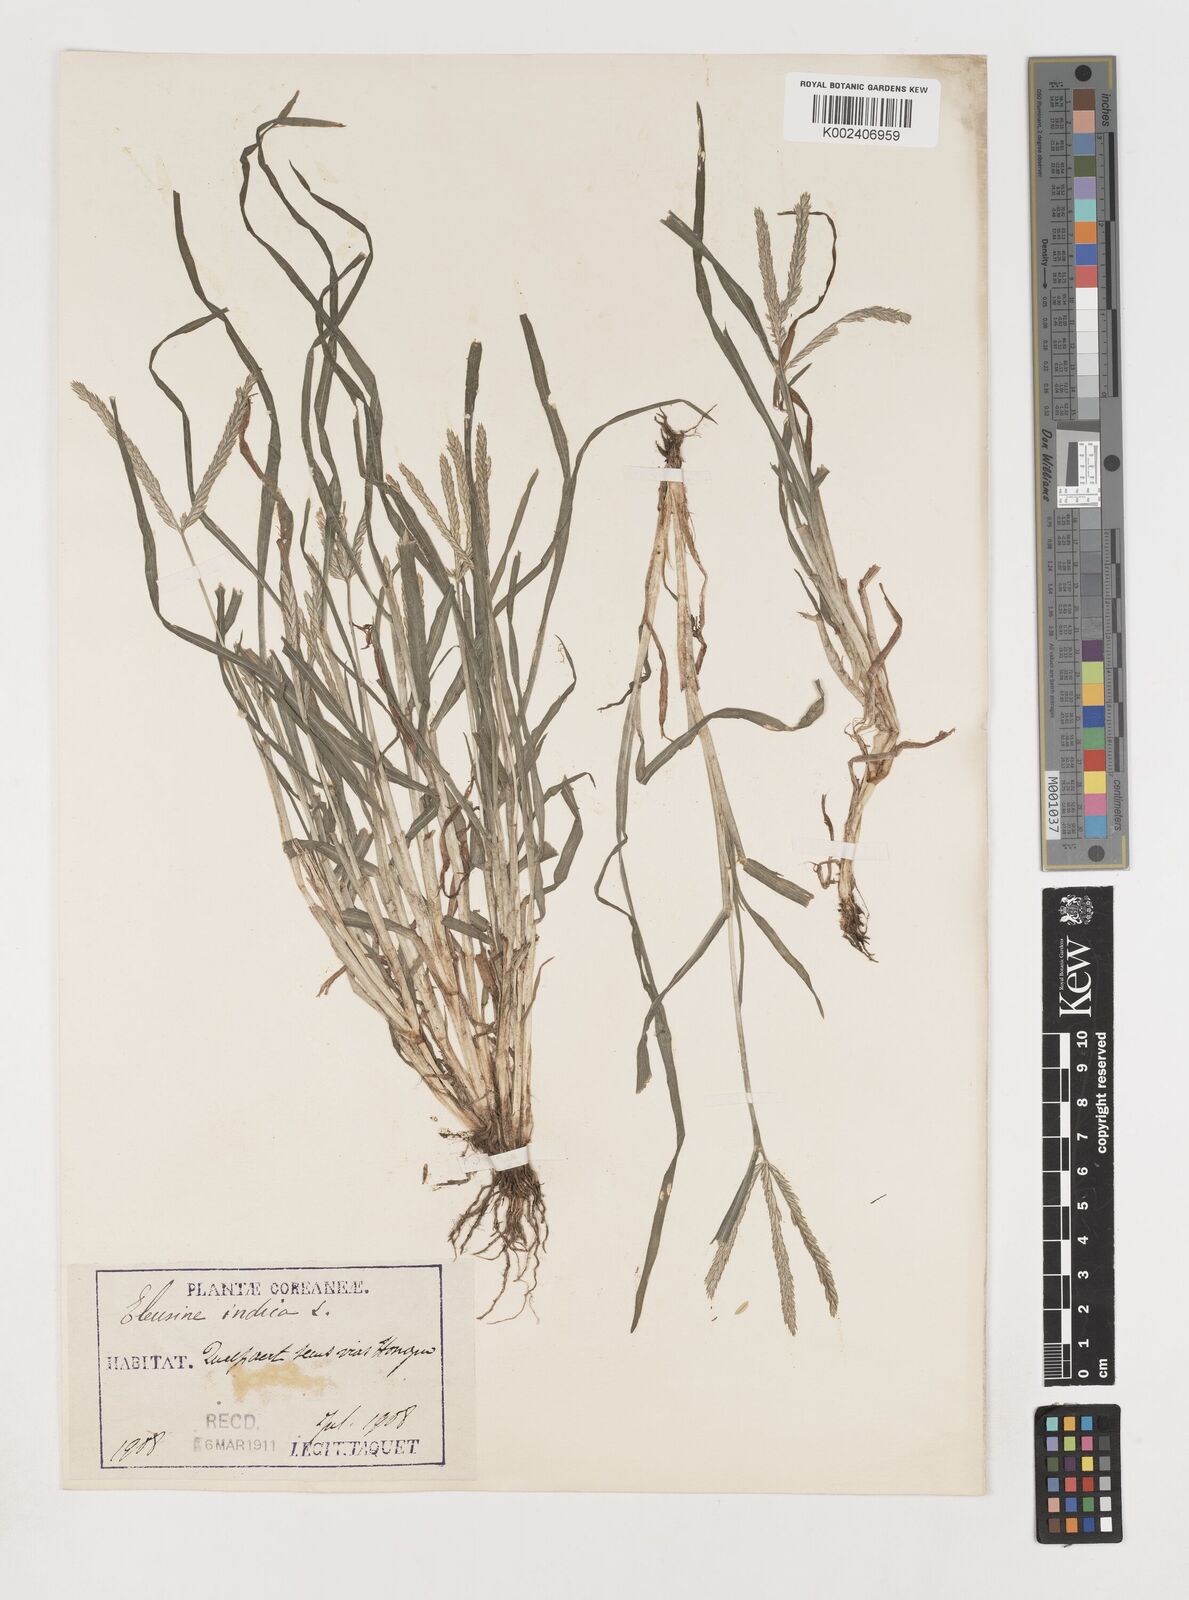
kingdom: Plantae
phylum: Tracheophyta
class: Liliopsida
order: Poales
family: Poaceae
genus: Eleusine
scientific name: Eleusine indica
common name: Yard-grass
